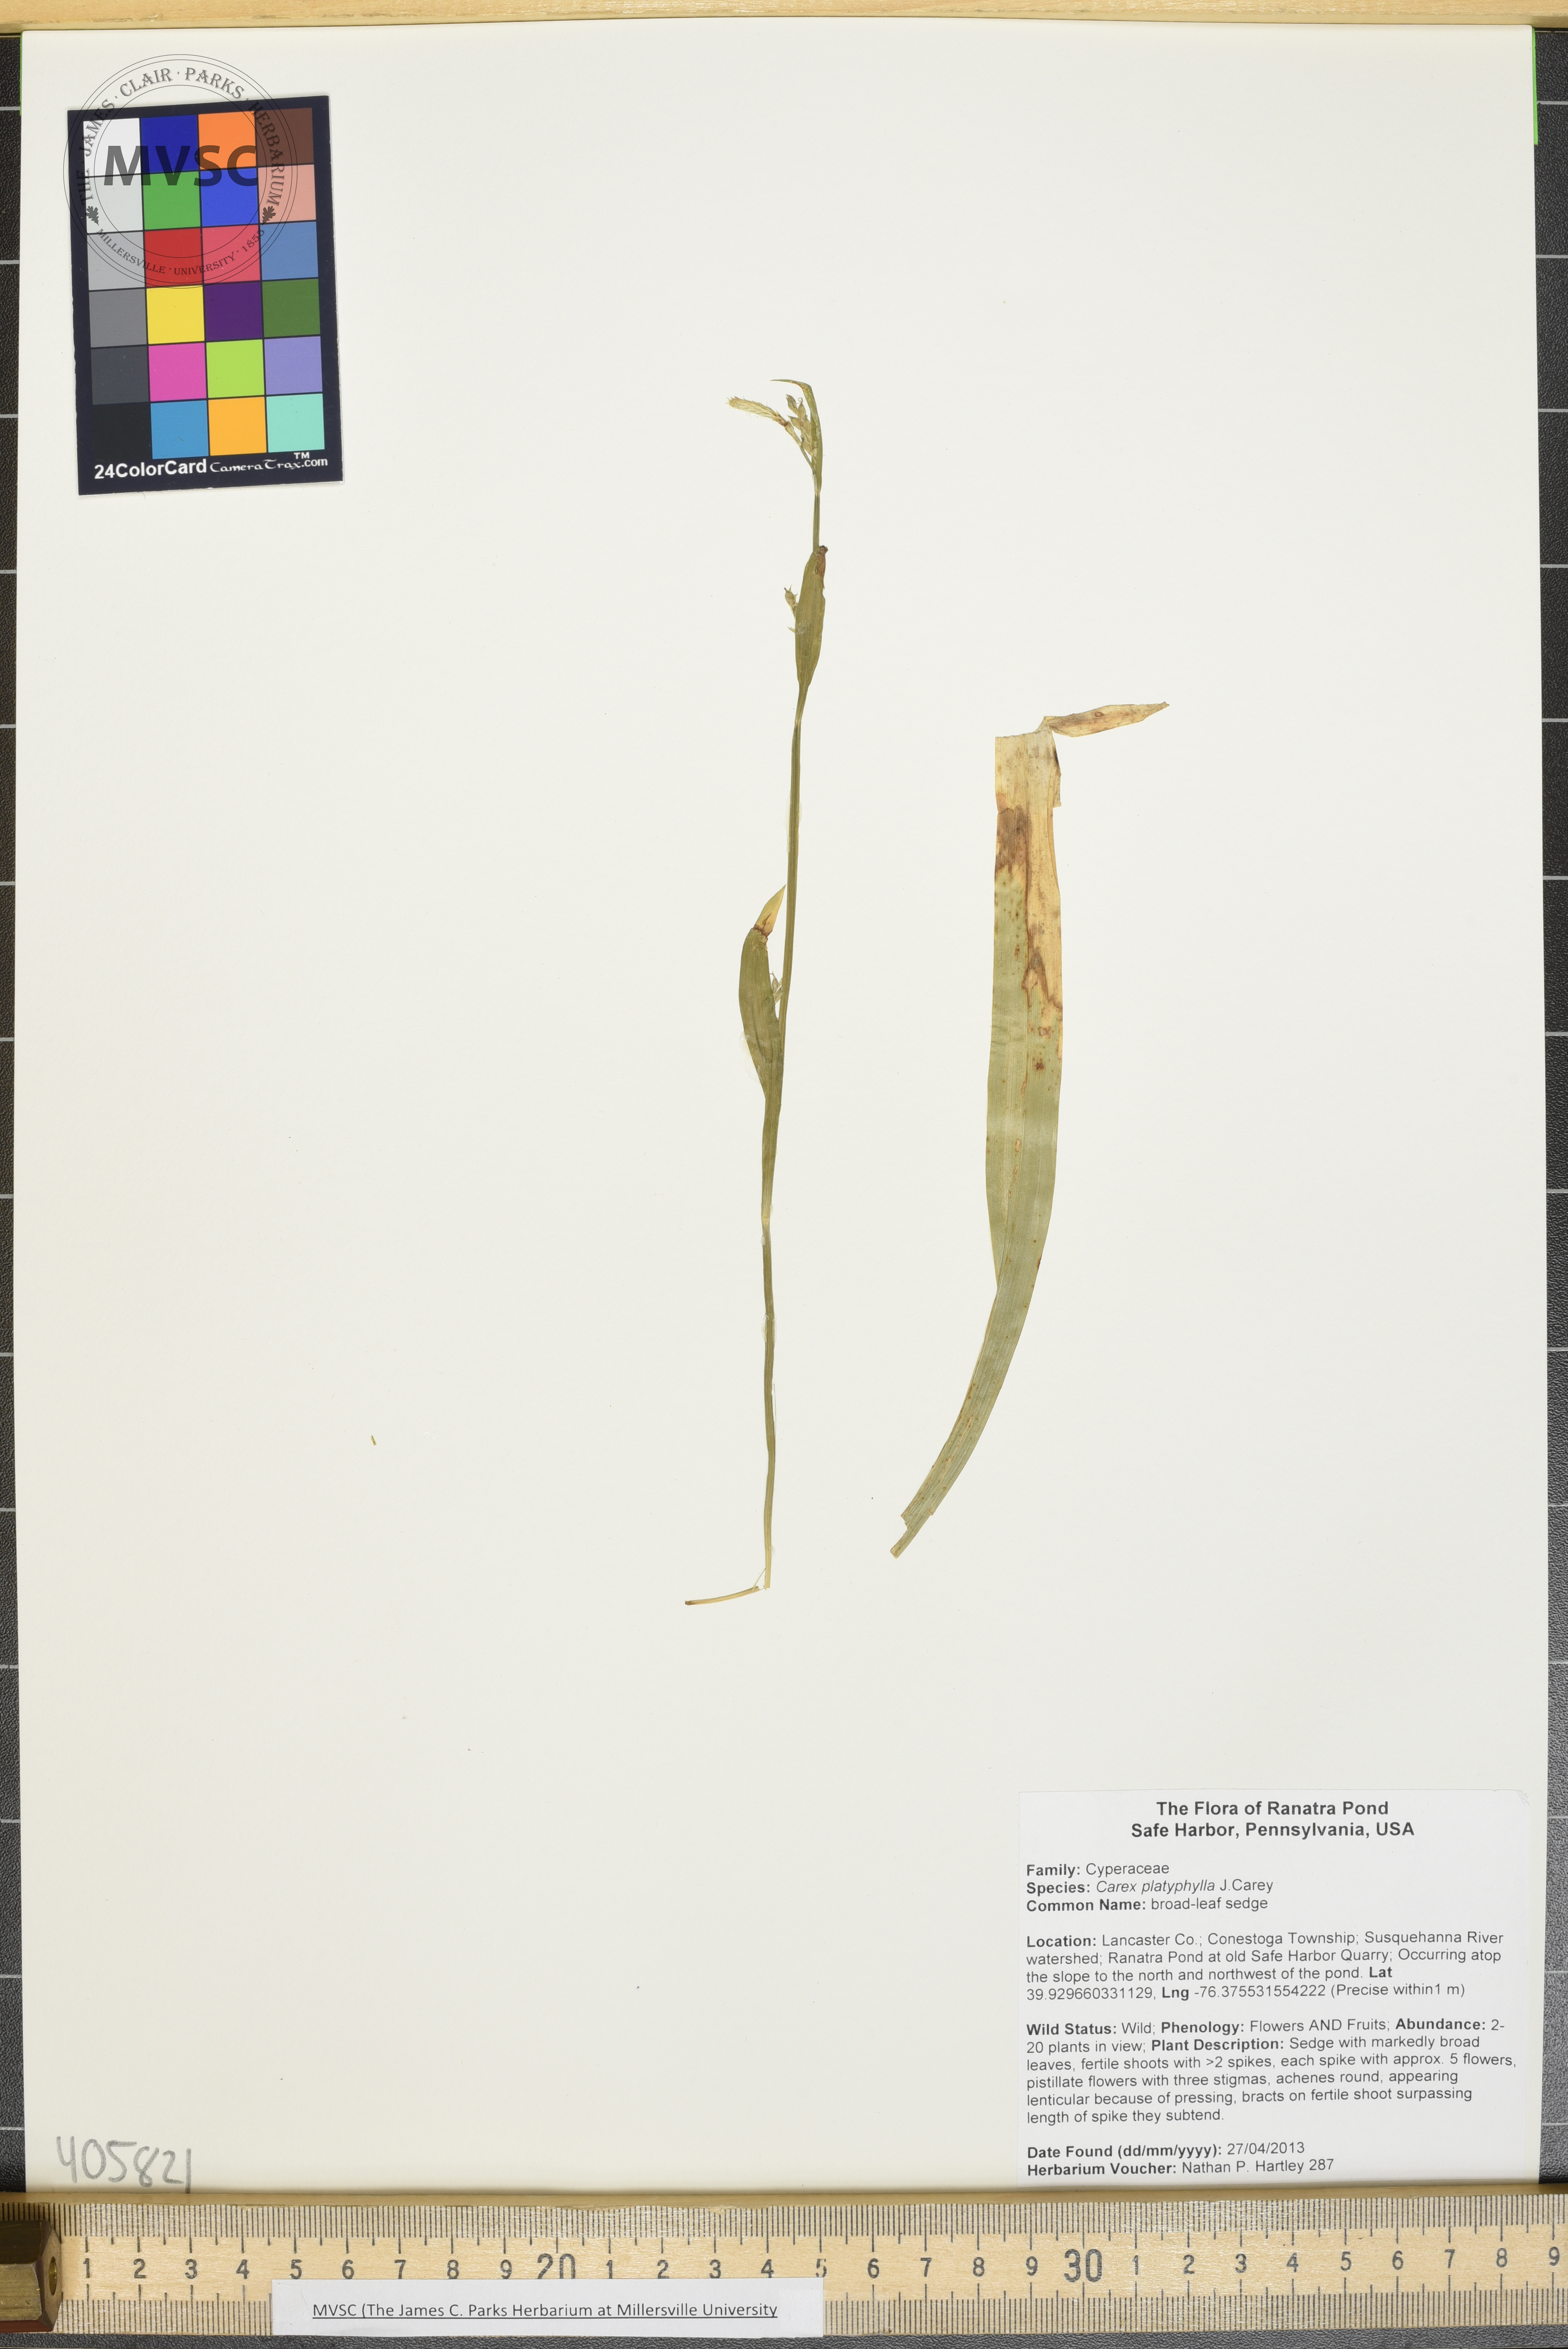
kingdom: Plantae
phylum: Tracheophyta
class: Liliopsida
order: Poales
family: Cyperaceae
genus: Carex
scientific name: Carex laxiflora
